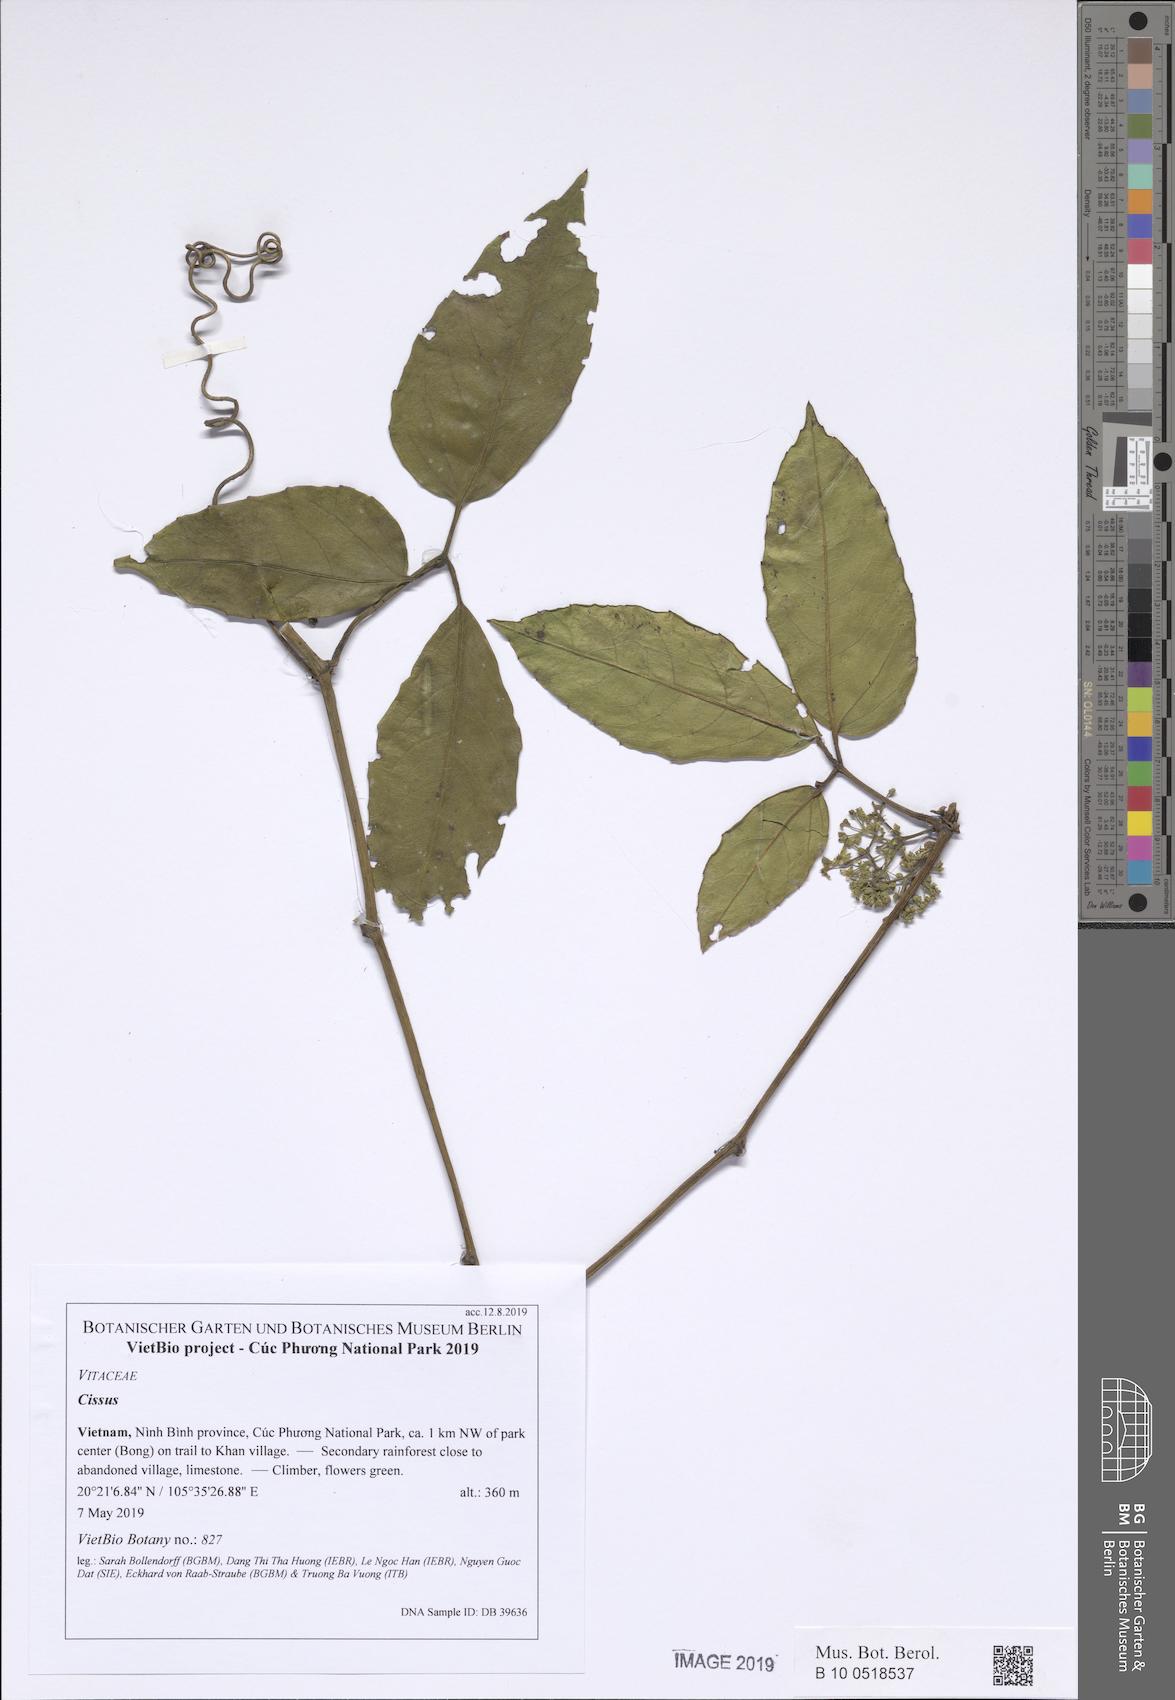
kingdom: Plantae
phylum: Tracheophyta
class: Magnoliopsida
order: Vitales
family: Vitaceae
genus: Cissus
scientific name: Cissus
